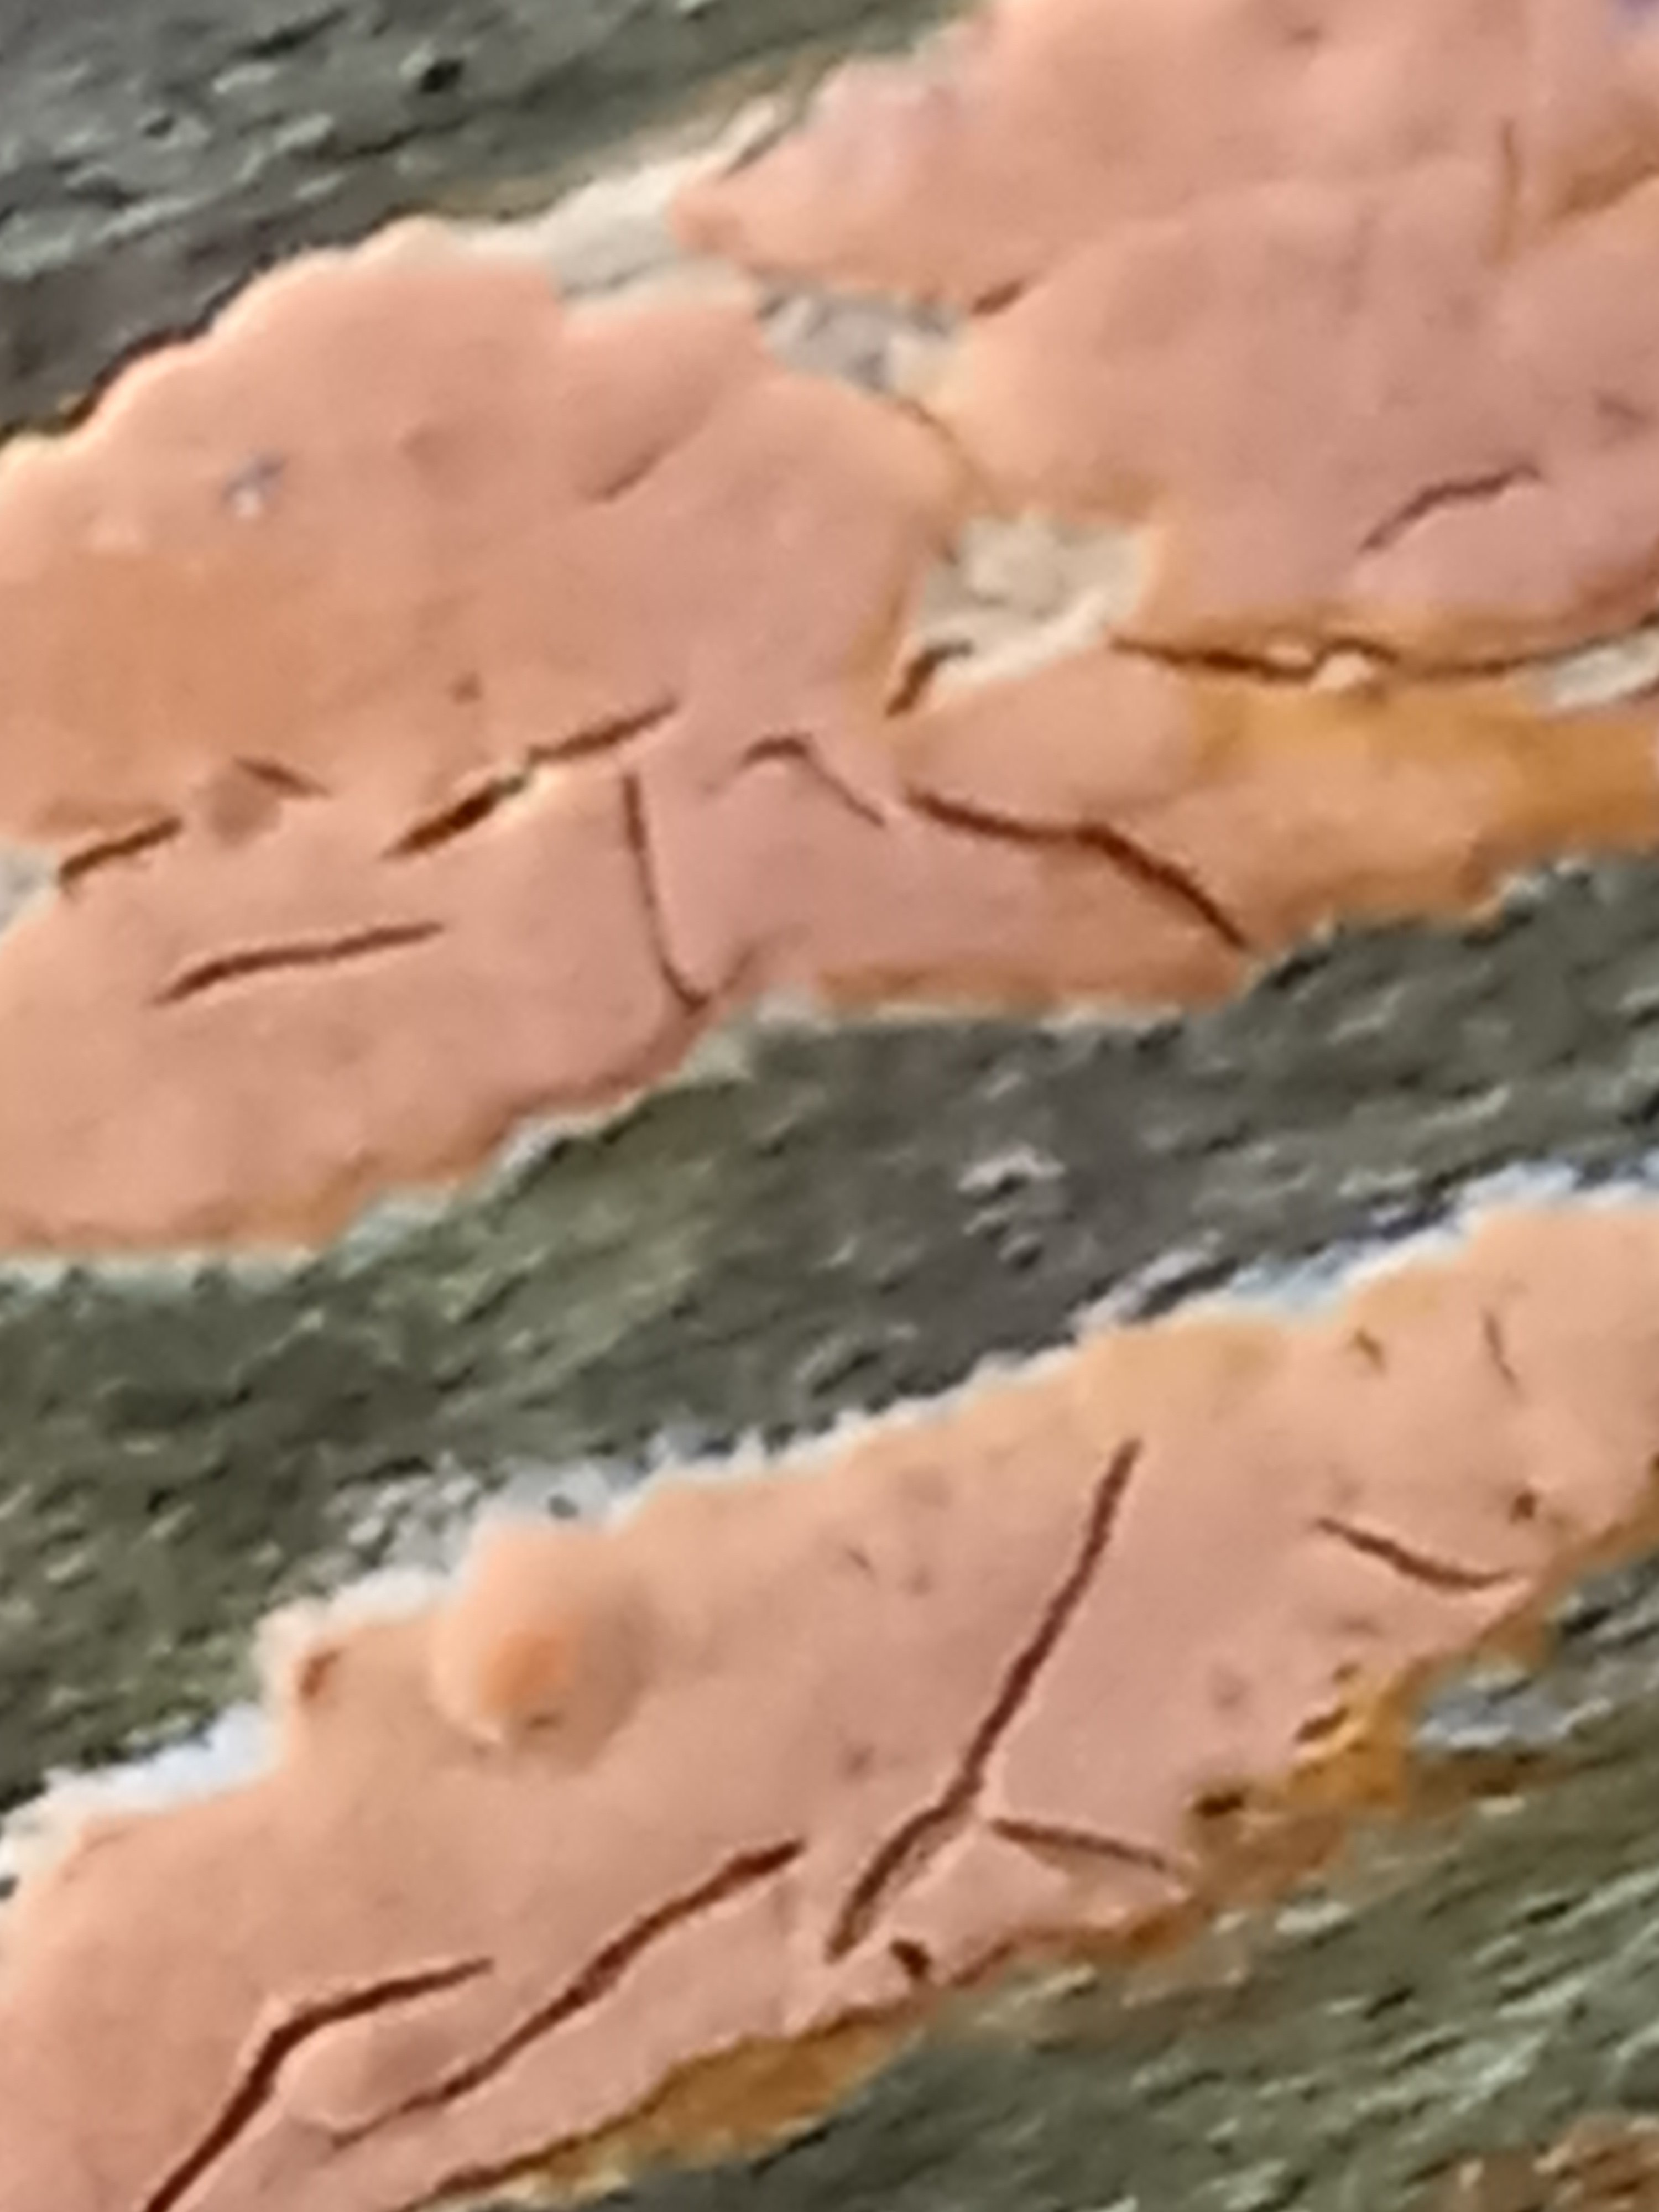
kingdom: Fungi
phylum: Basidiomycota
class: Agaricomycetes
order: Russulales
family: Peniophoraceae
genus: Peniophora
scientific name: Peniophora incarnata
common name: laksefarvet voksskind
